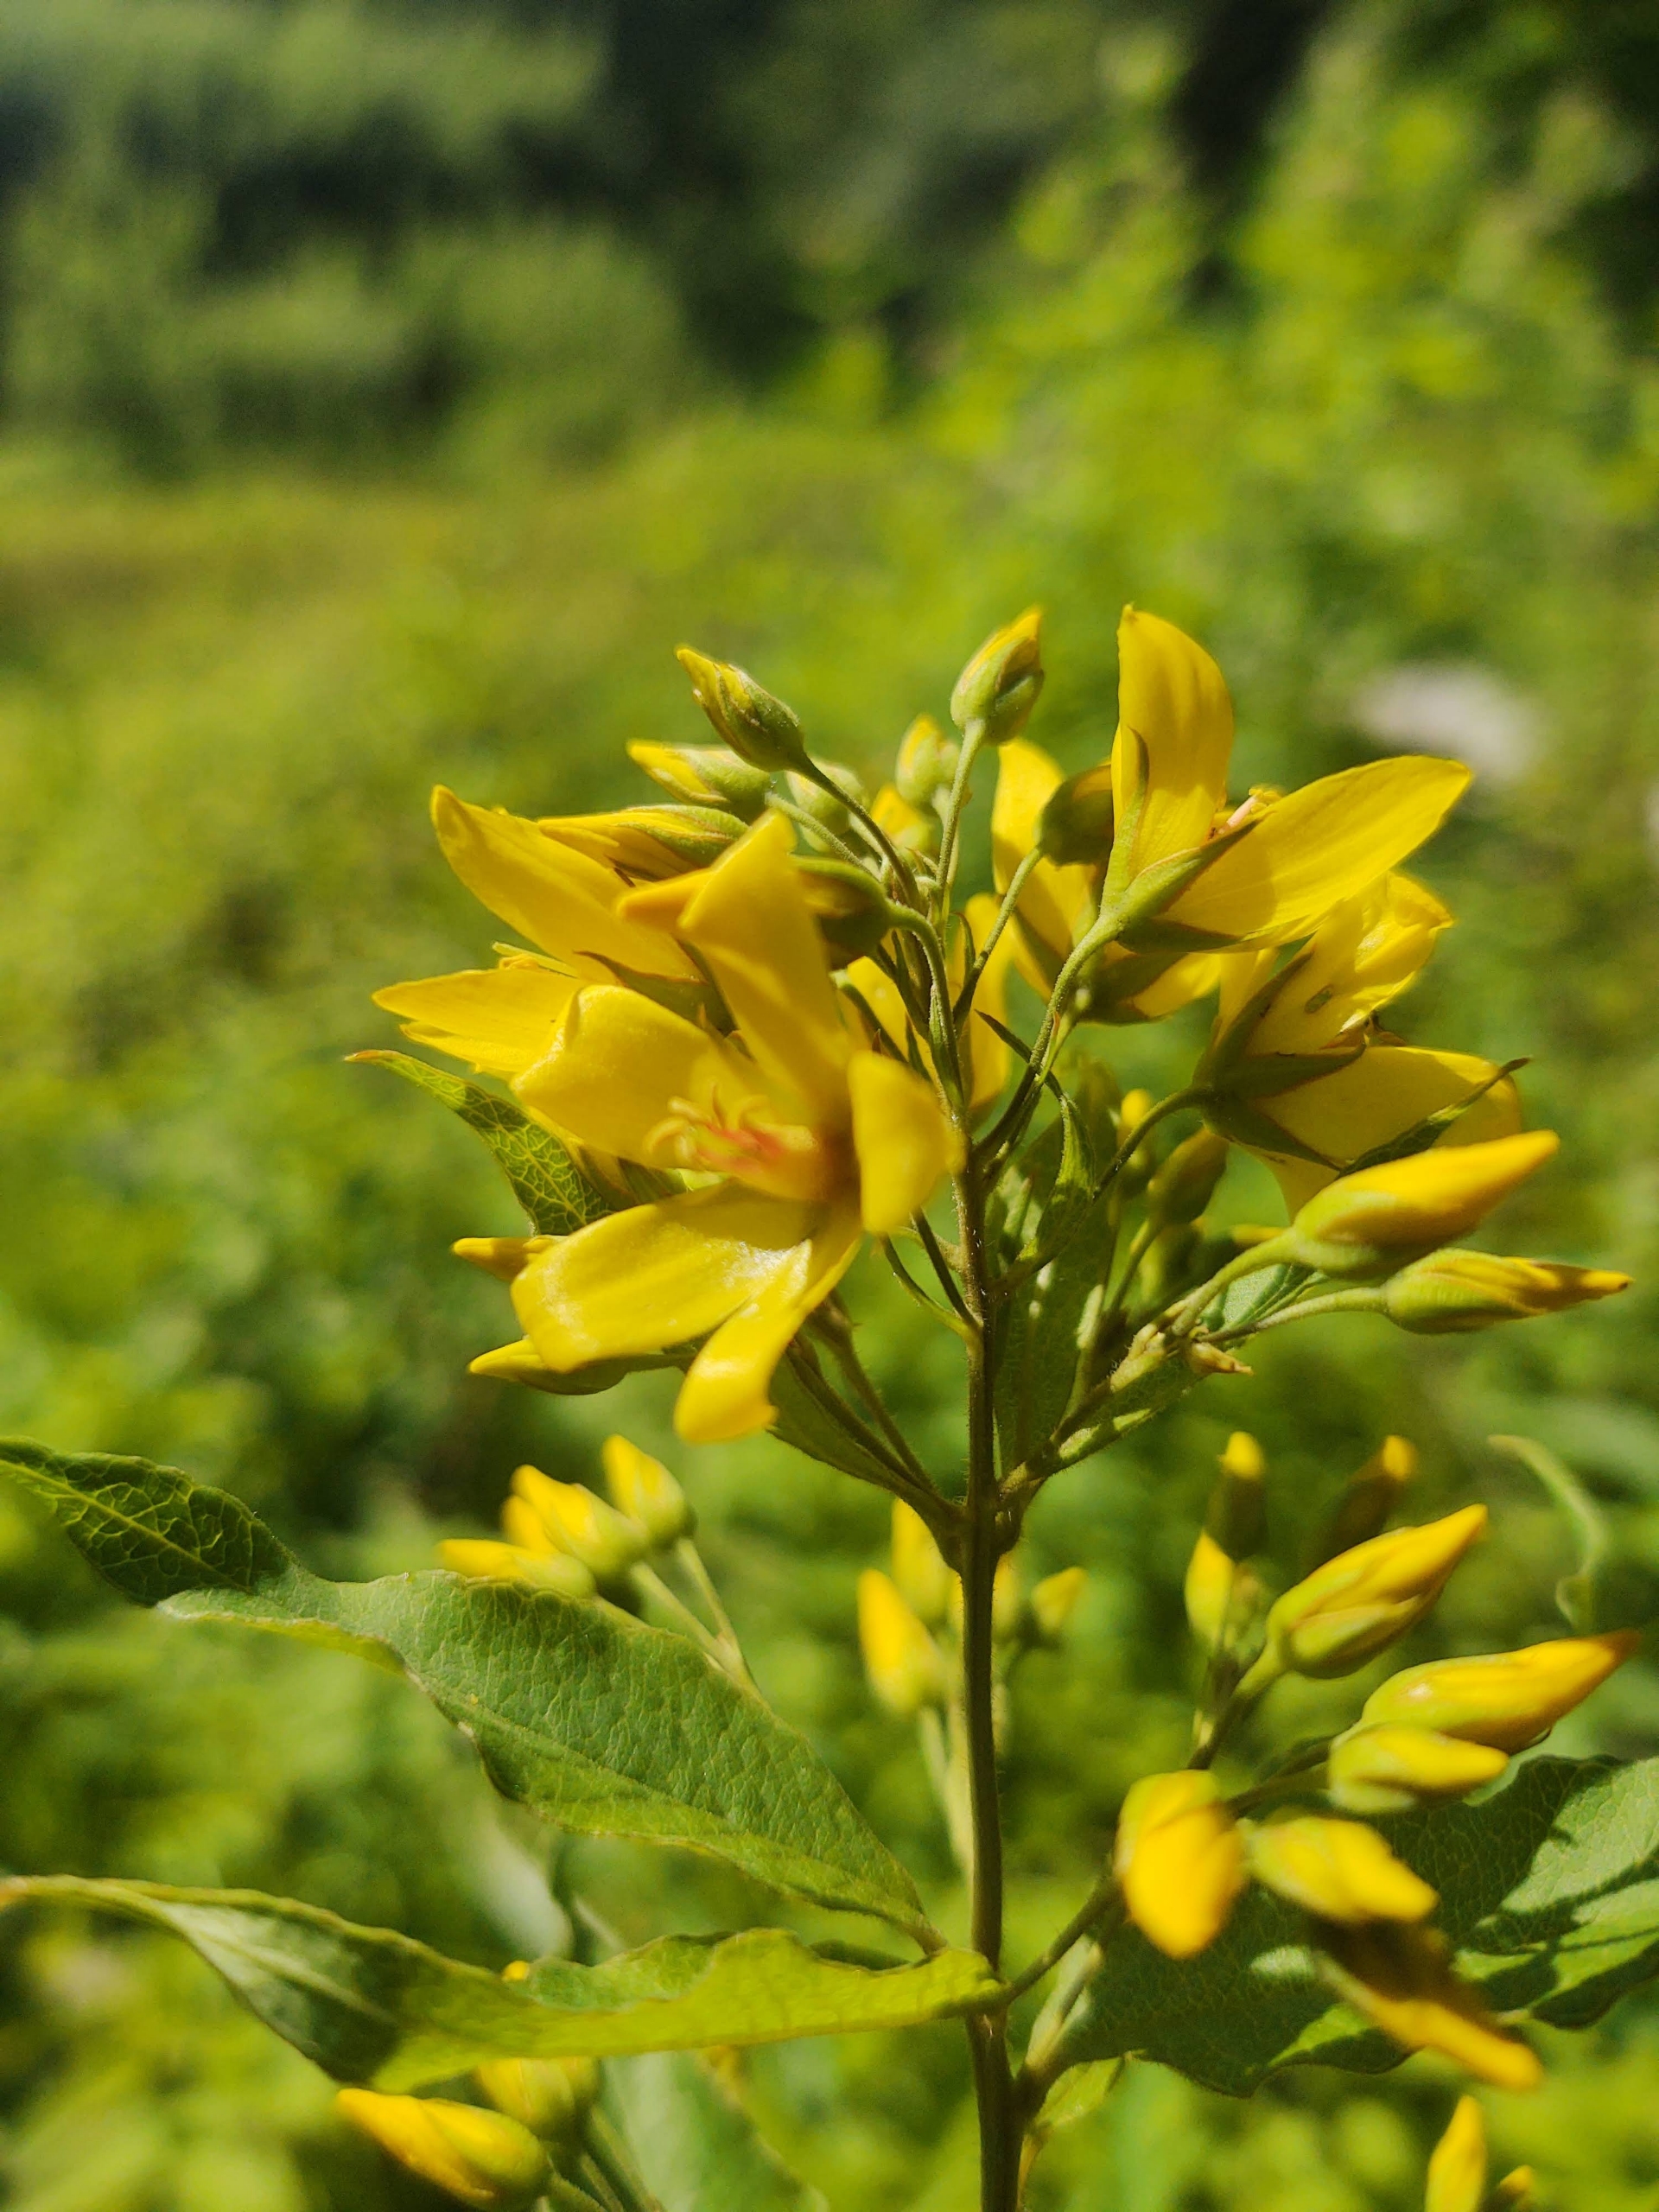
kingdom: Plantae
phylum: Tracheophyta
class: Magnoliopsida
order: Ericales
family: Primulaceae
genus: Lysimachia
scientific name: Lysimachia vulgaris
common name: Almindelig fredløs
